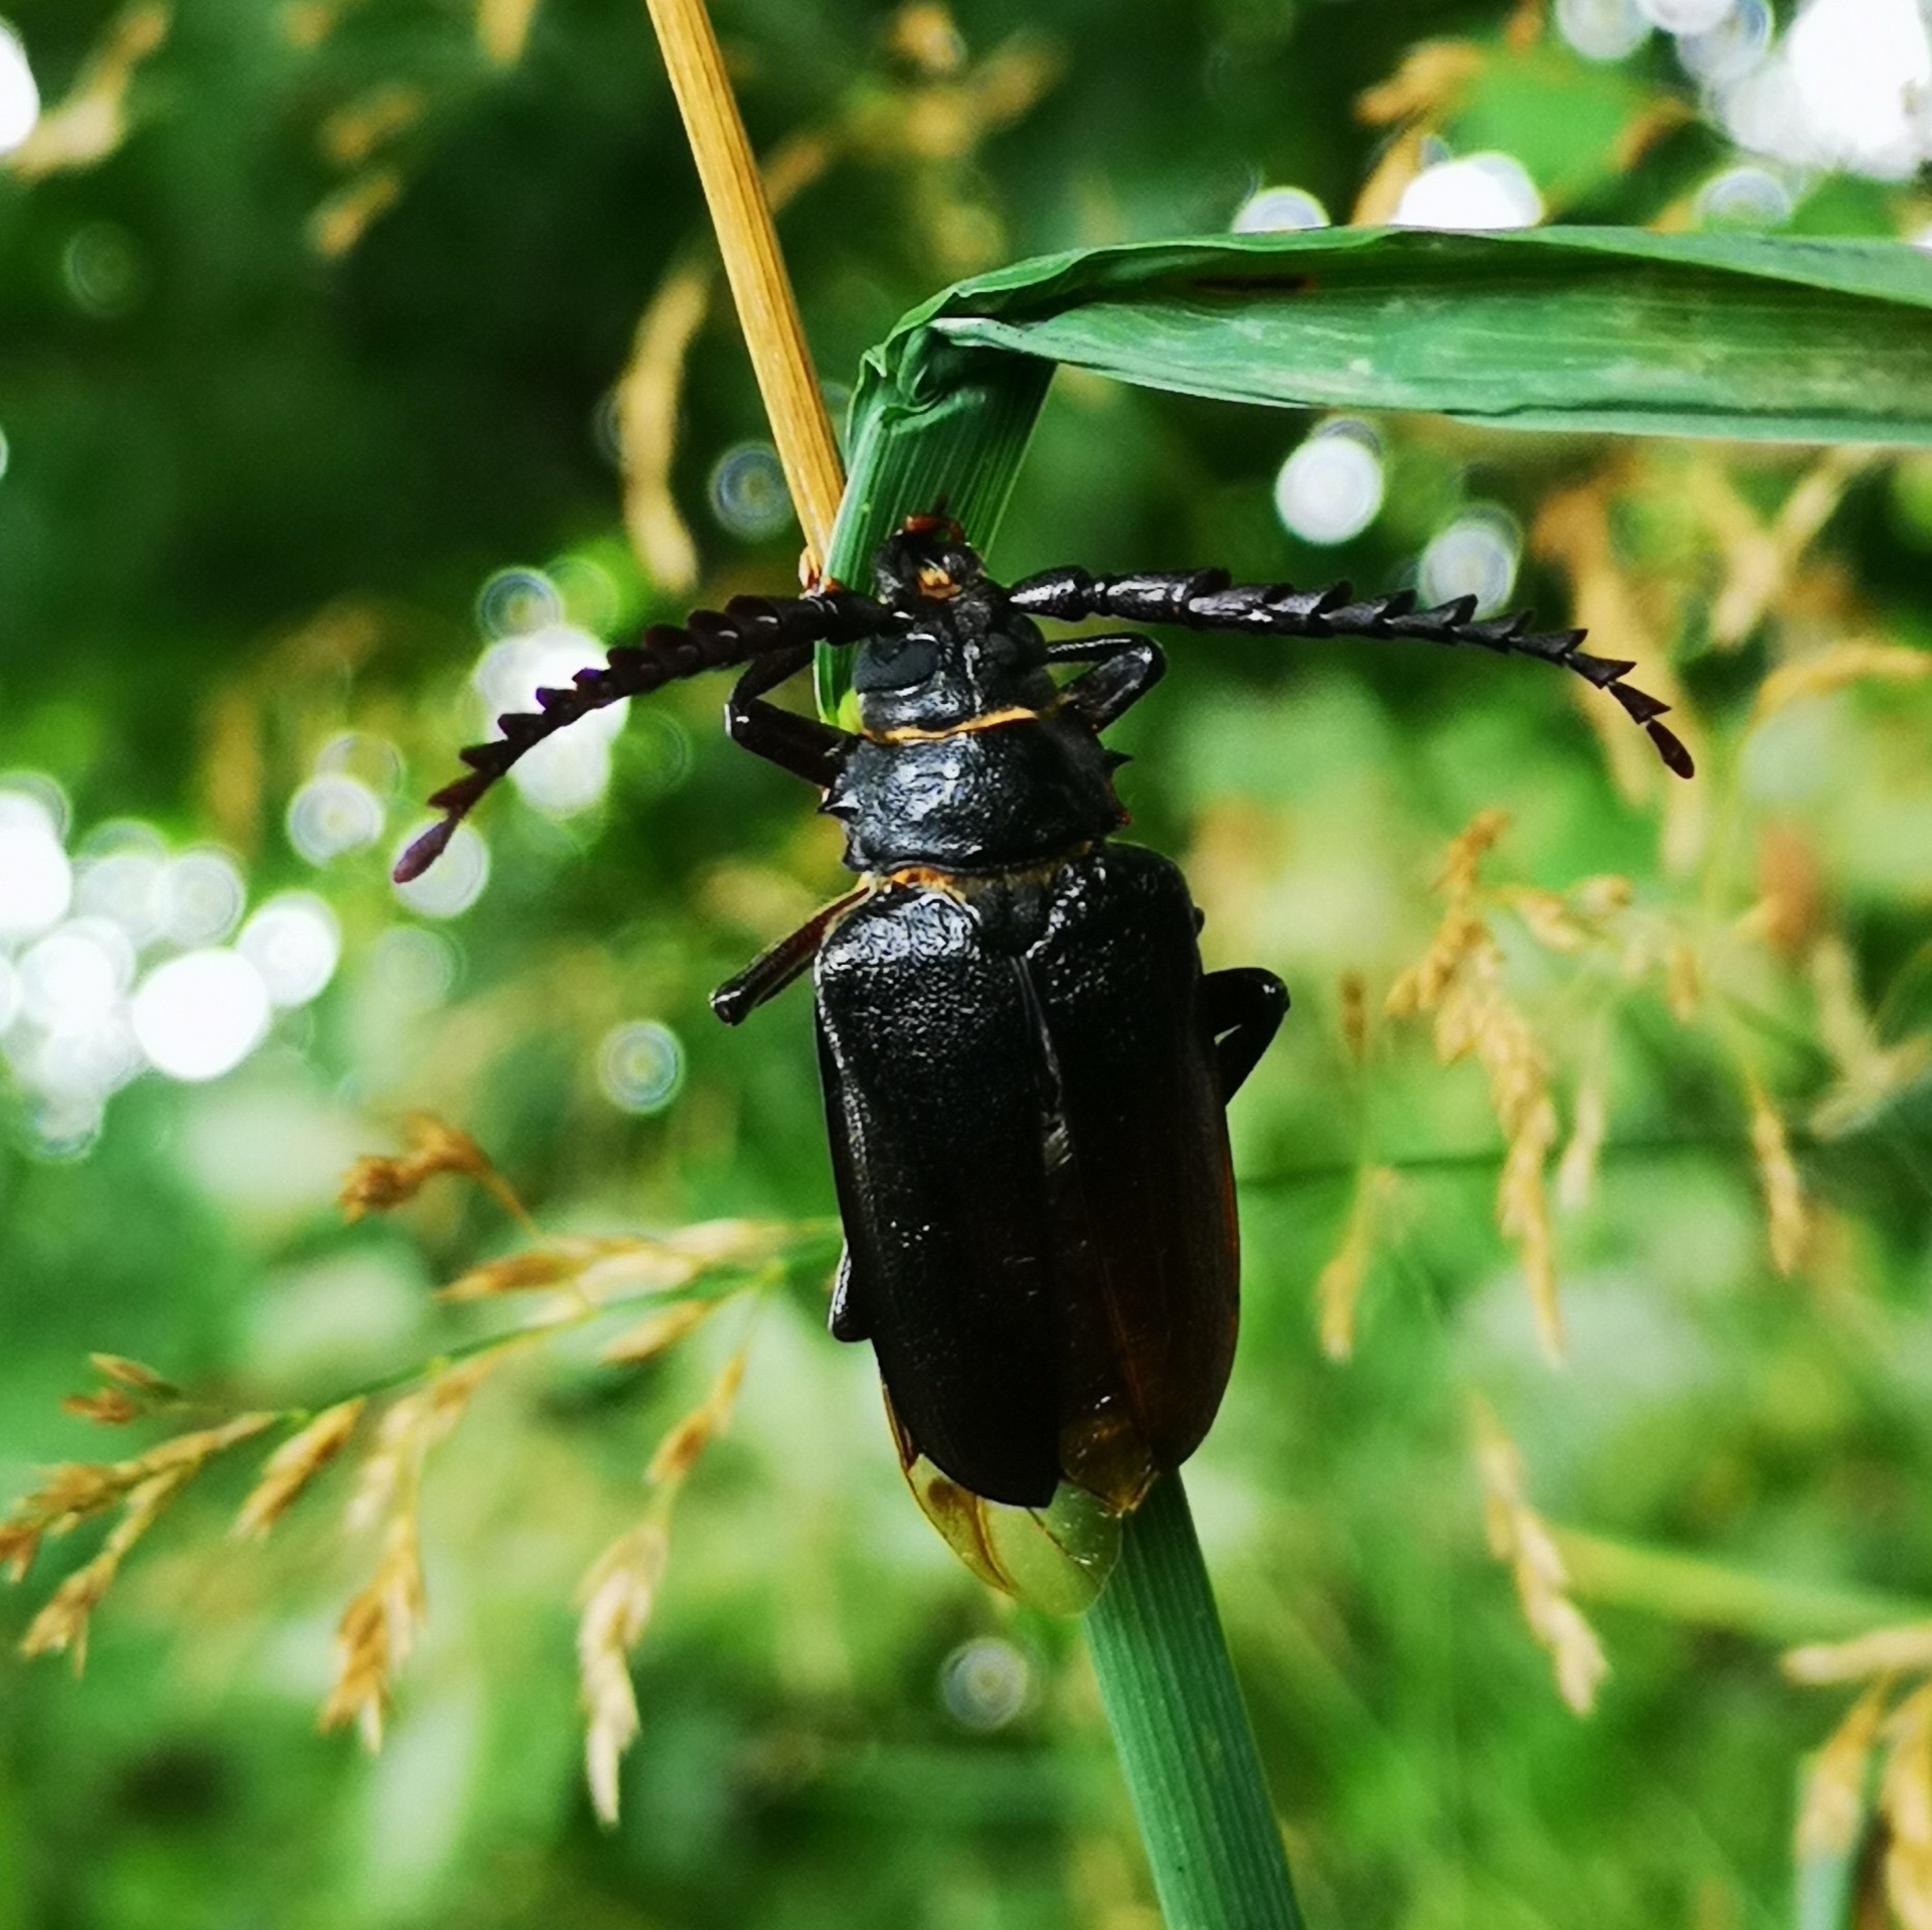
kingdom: Animalia
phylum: Arthropoda
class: Insecta
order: Coleoptera
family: Cerambycidae
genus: Prionus
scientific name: Prionus coriarius
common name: Garver
